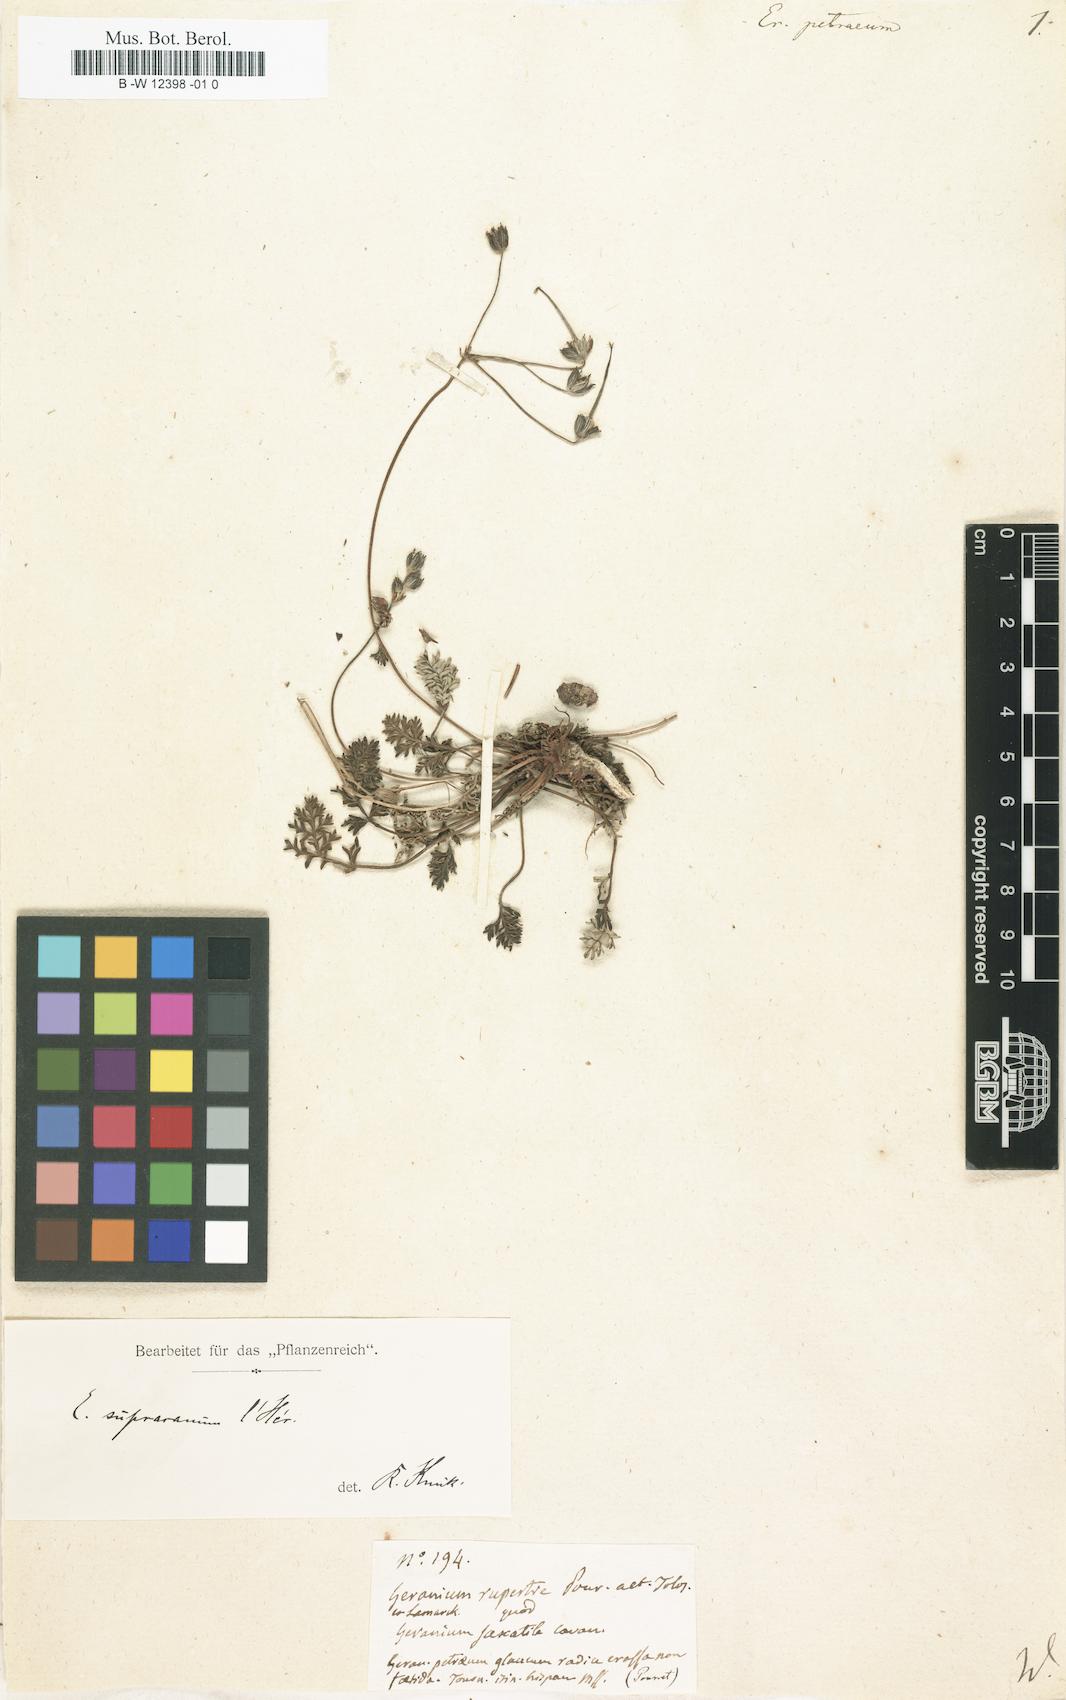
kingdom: Plantae
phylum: Tracheophyta
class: Magnoliopsida
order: Geraniales
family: Geraniaceae
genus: Erodium
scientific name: Erodium
